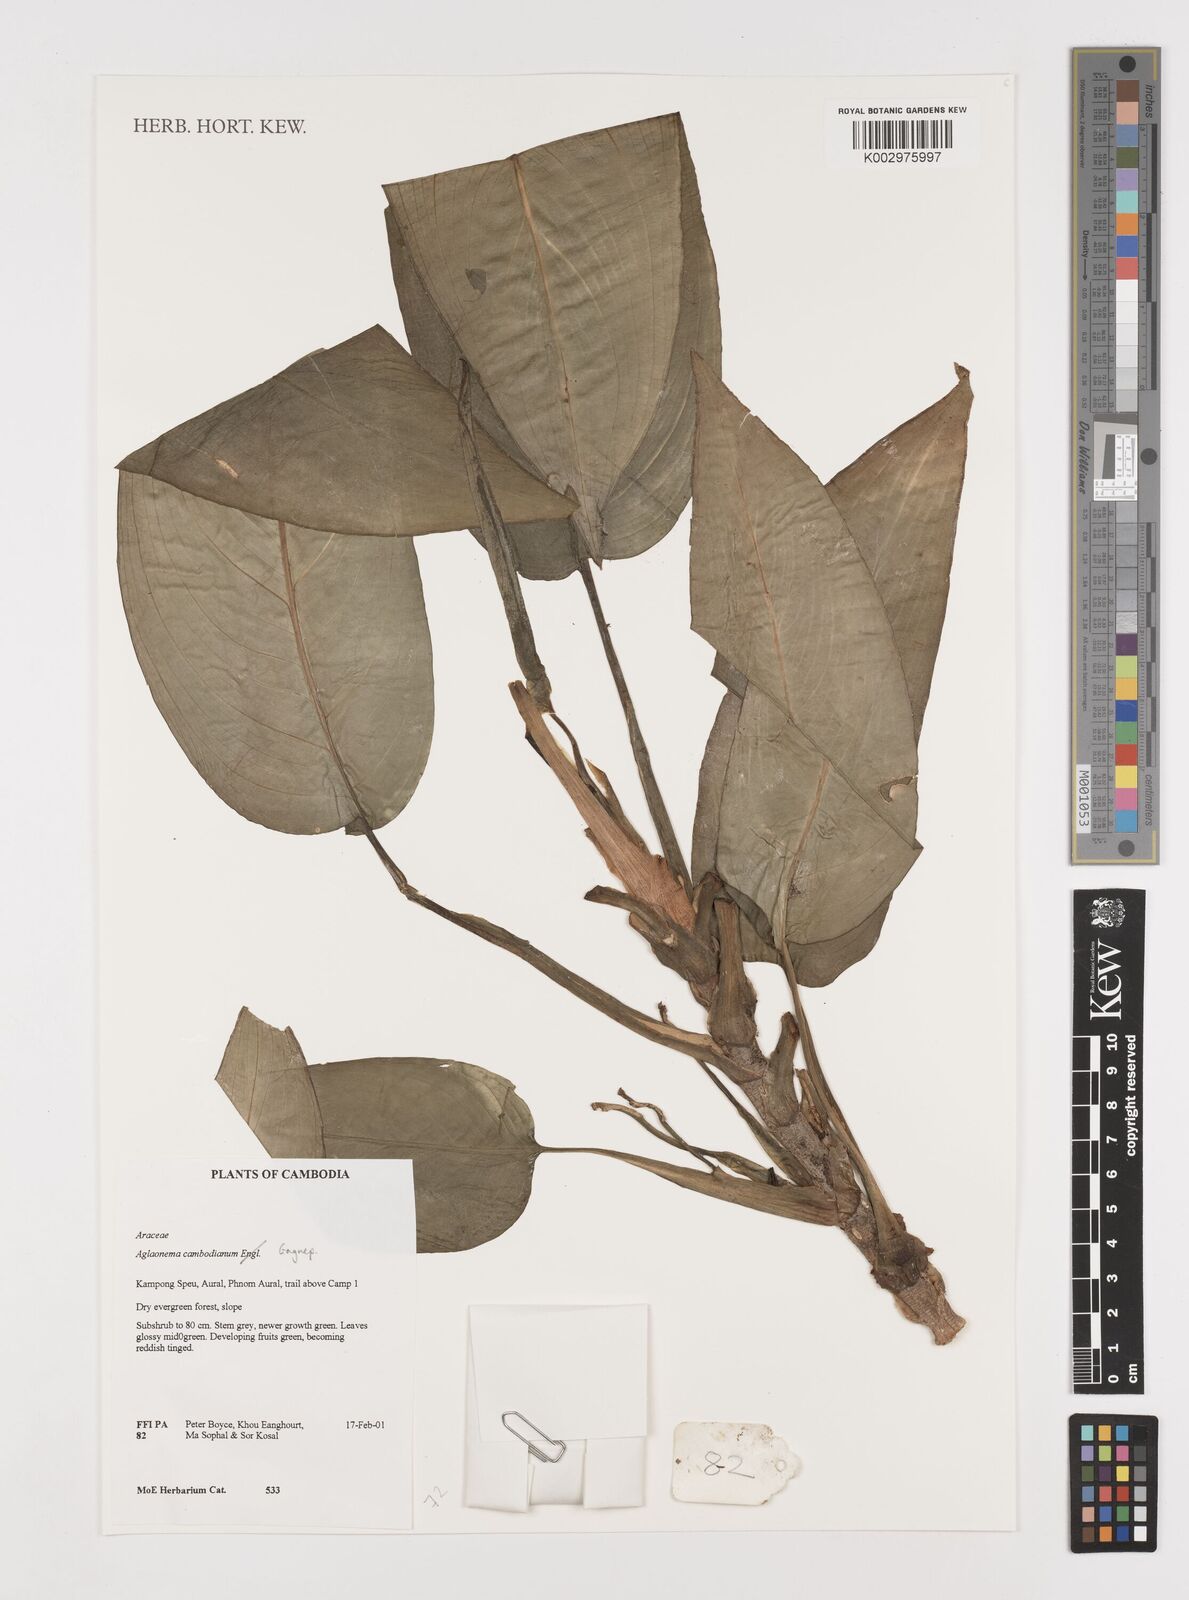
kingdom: Plantae
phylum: Tracheophyta
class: Liliopsida
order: Alismatales
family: Araceae
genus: Aglaonema
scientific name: Aglaonema cochinchinense
